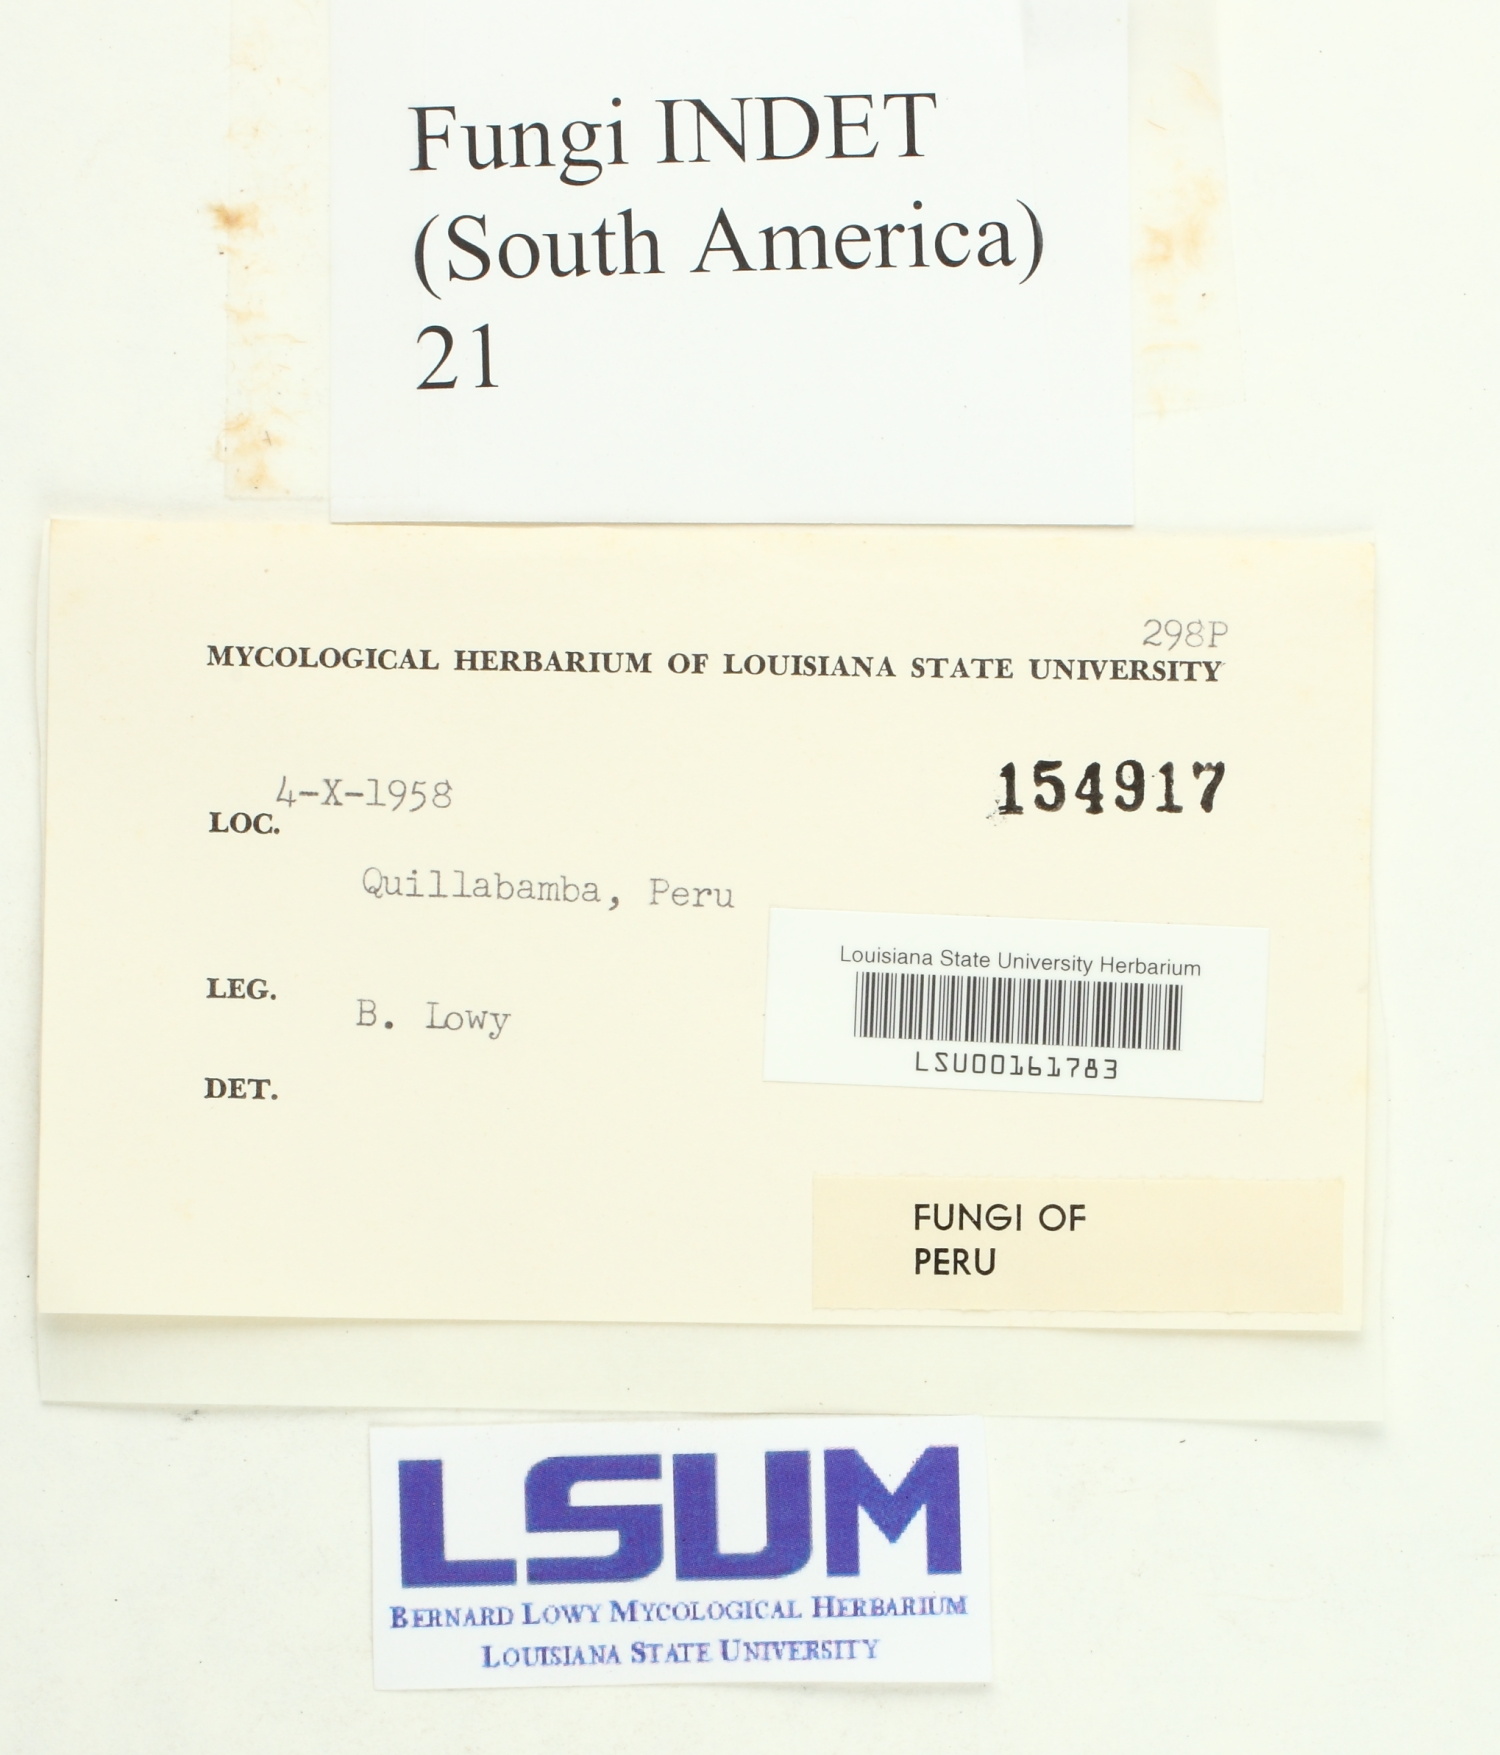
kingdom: Fungi
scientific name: Fungi
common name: Fungi
